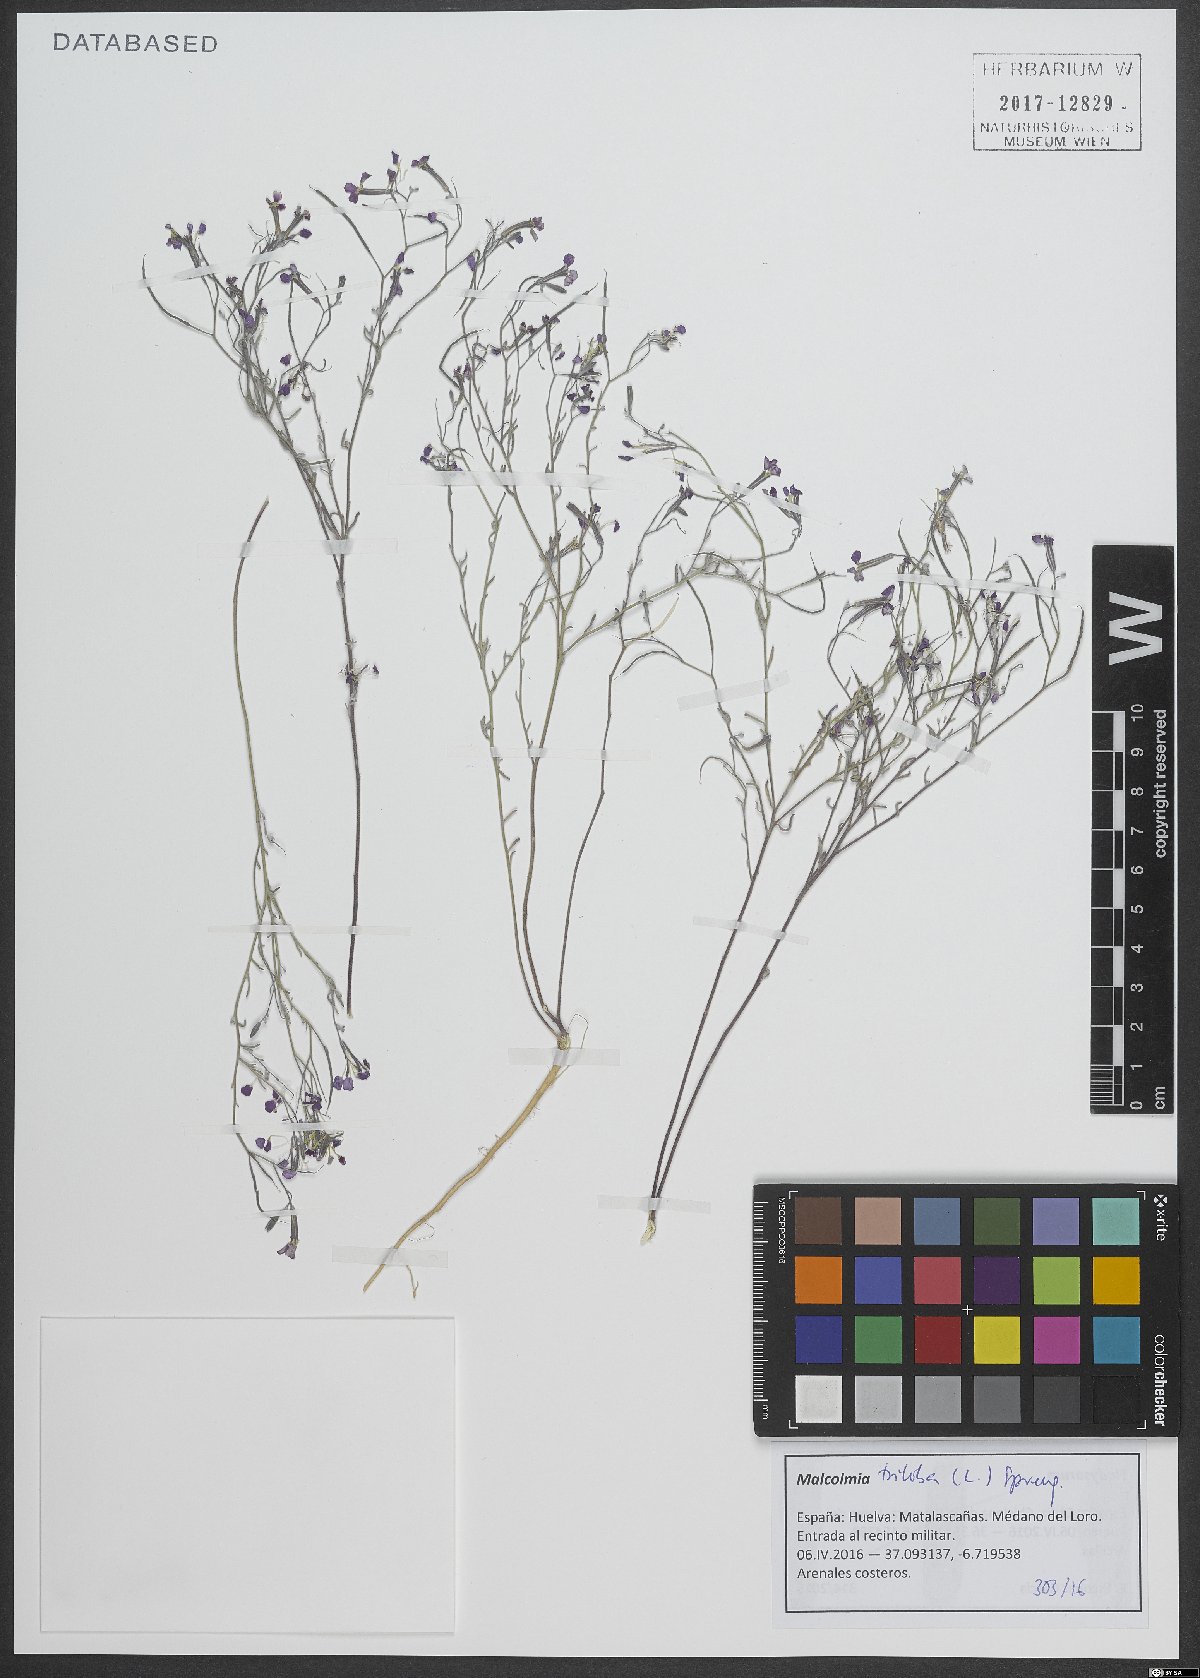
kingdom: Plantae
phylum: Tracheophyta
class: Magnoliopsida
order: Brassicales
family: Brassicaceae
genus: Marcuskochia
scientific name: Marcuskochia triloba
